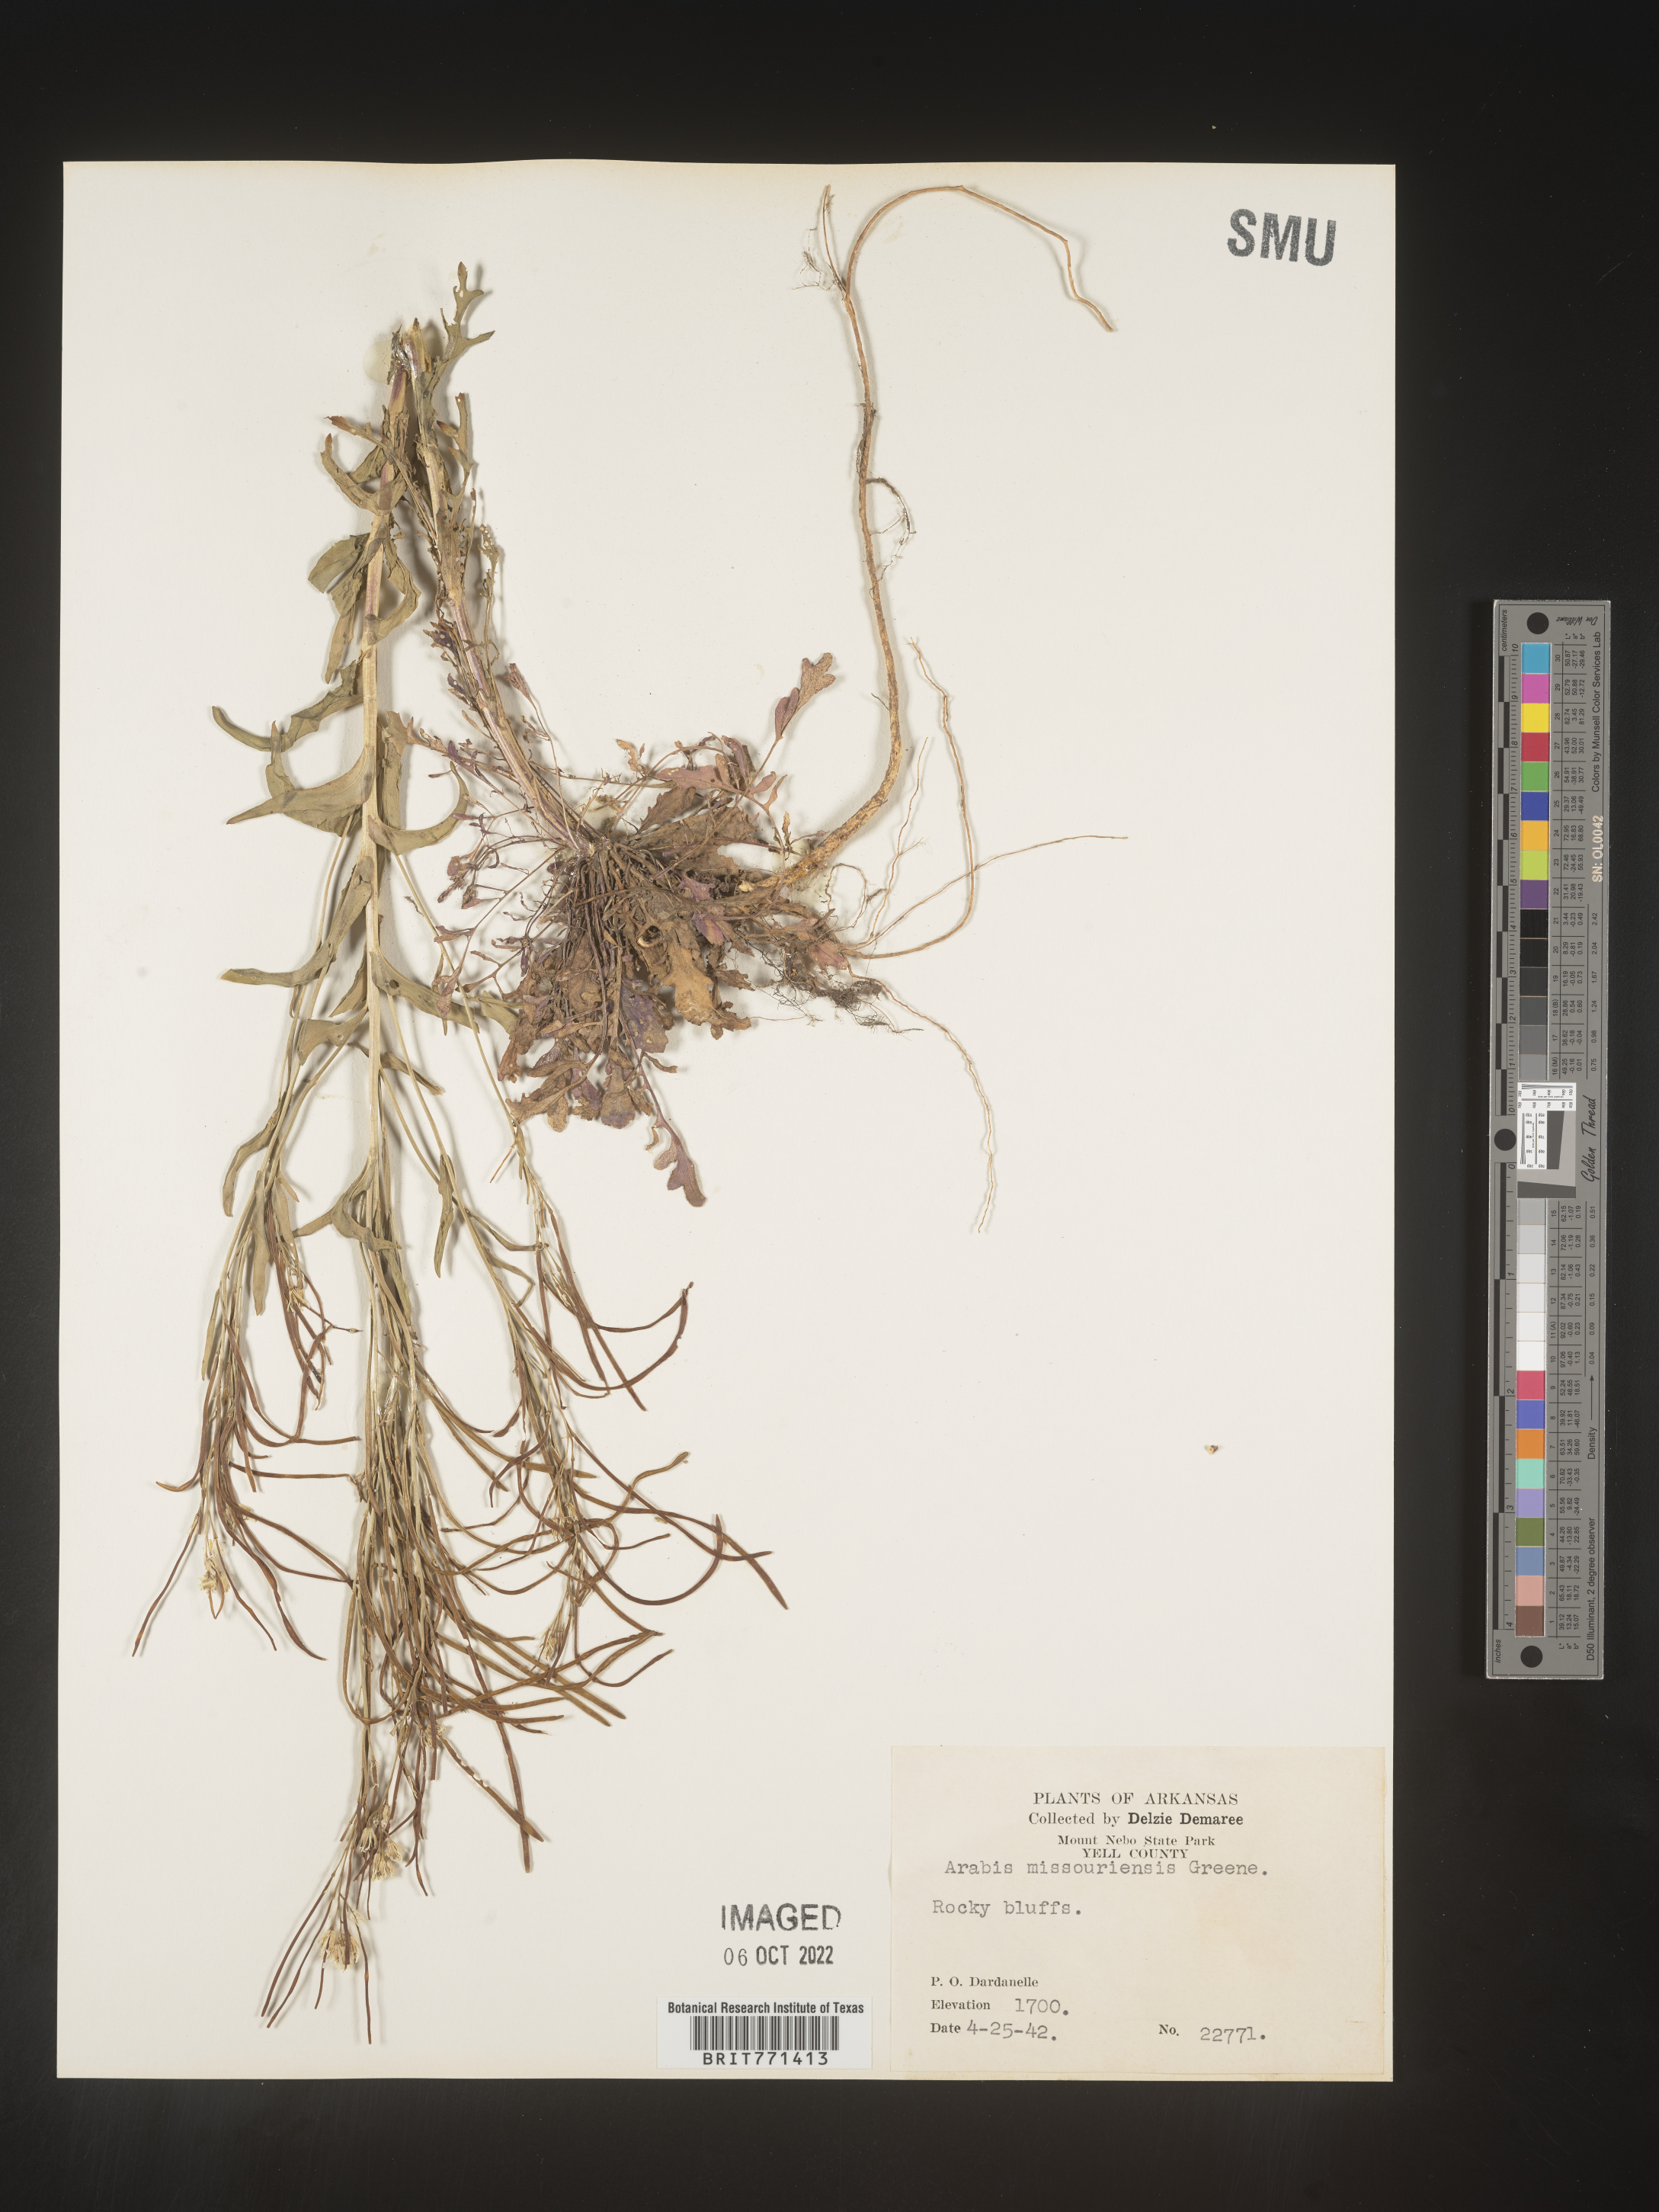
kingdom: Plantae
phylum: Tracheophyta
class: Magnoliopsida
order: Brassicales
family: Brassicaceae
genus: Arabis
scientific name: Arabis
